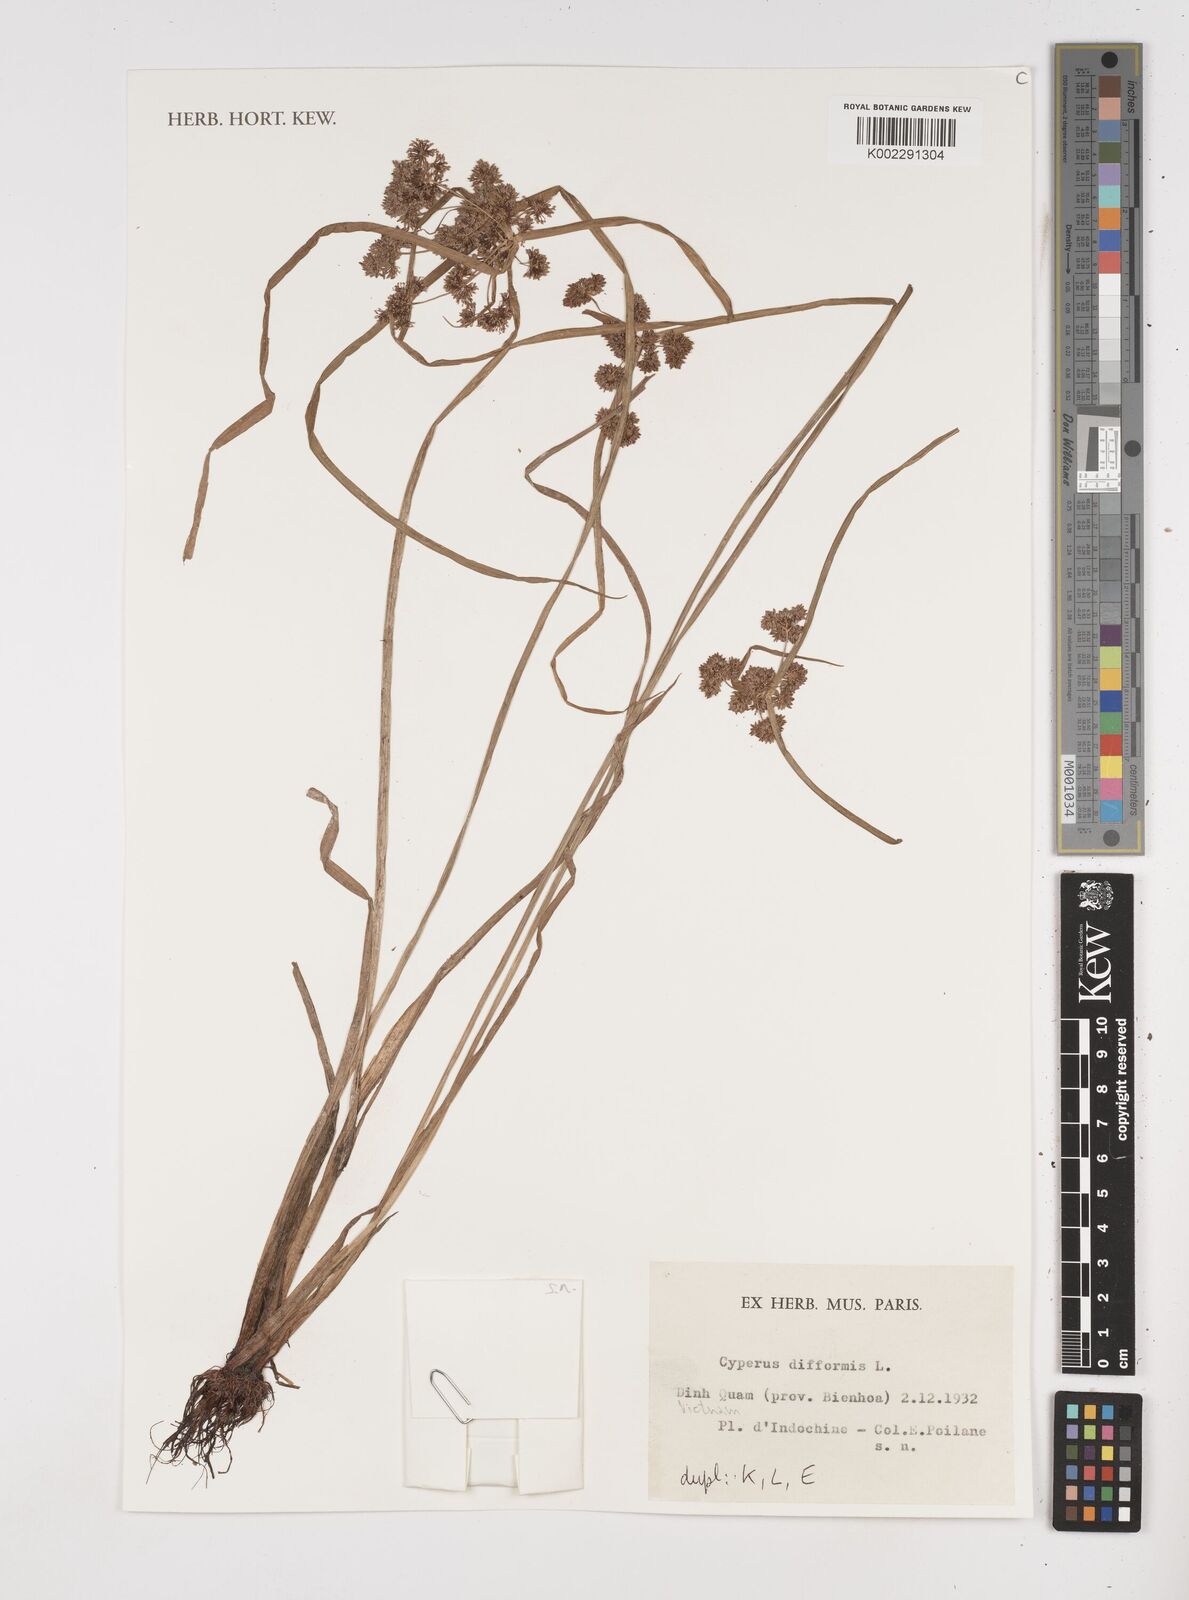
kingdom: Plantae
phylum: Tracheophyta
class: Liliopsida
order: Poales
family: Cyperaceae
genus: Cyperus
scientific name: Cyperus difformis
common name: Variable flatsedge
